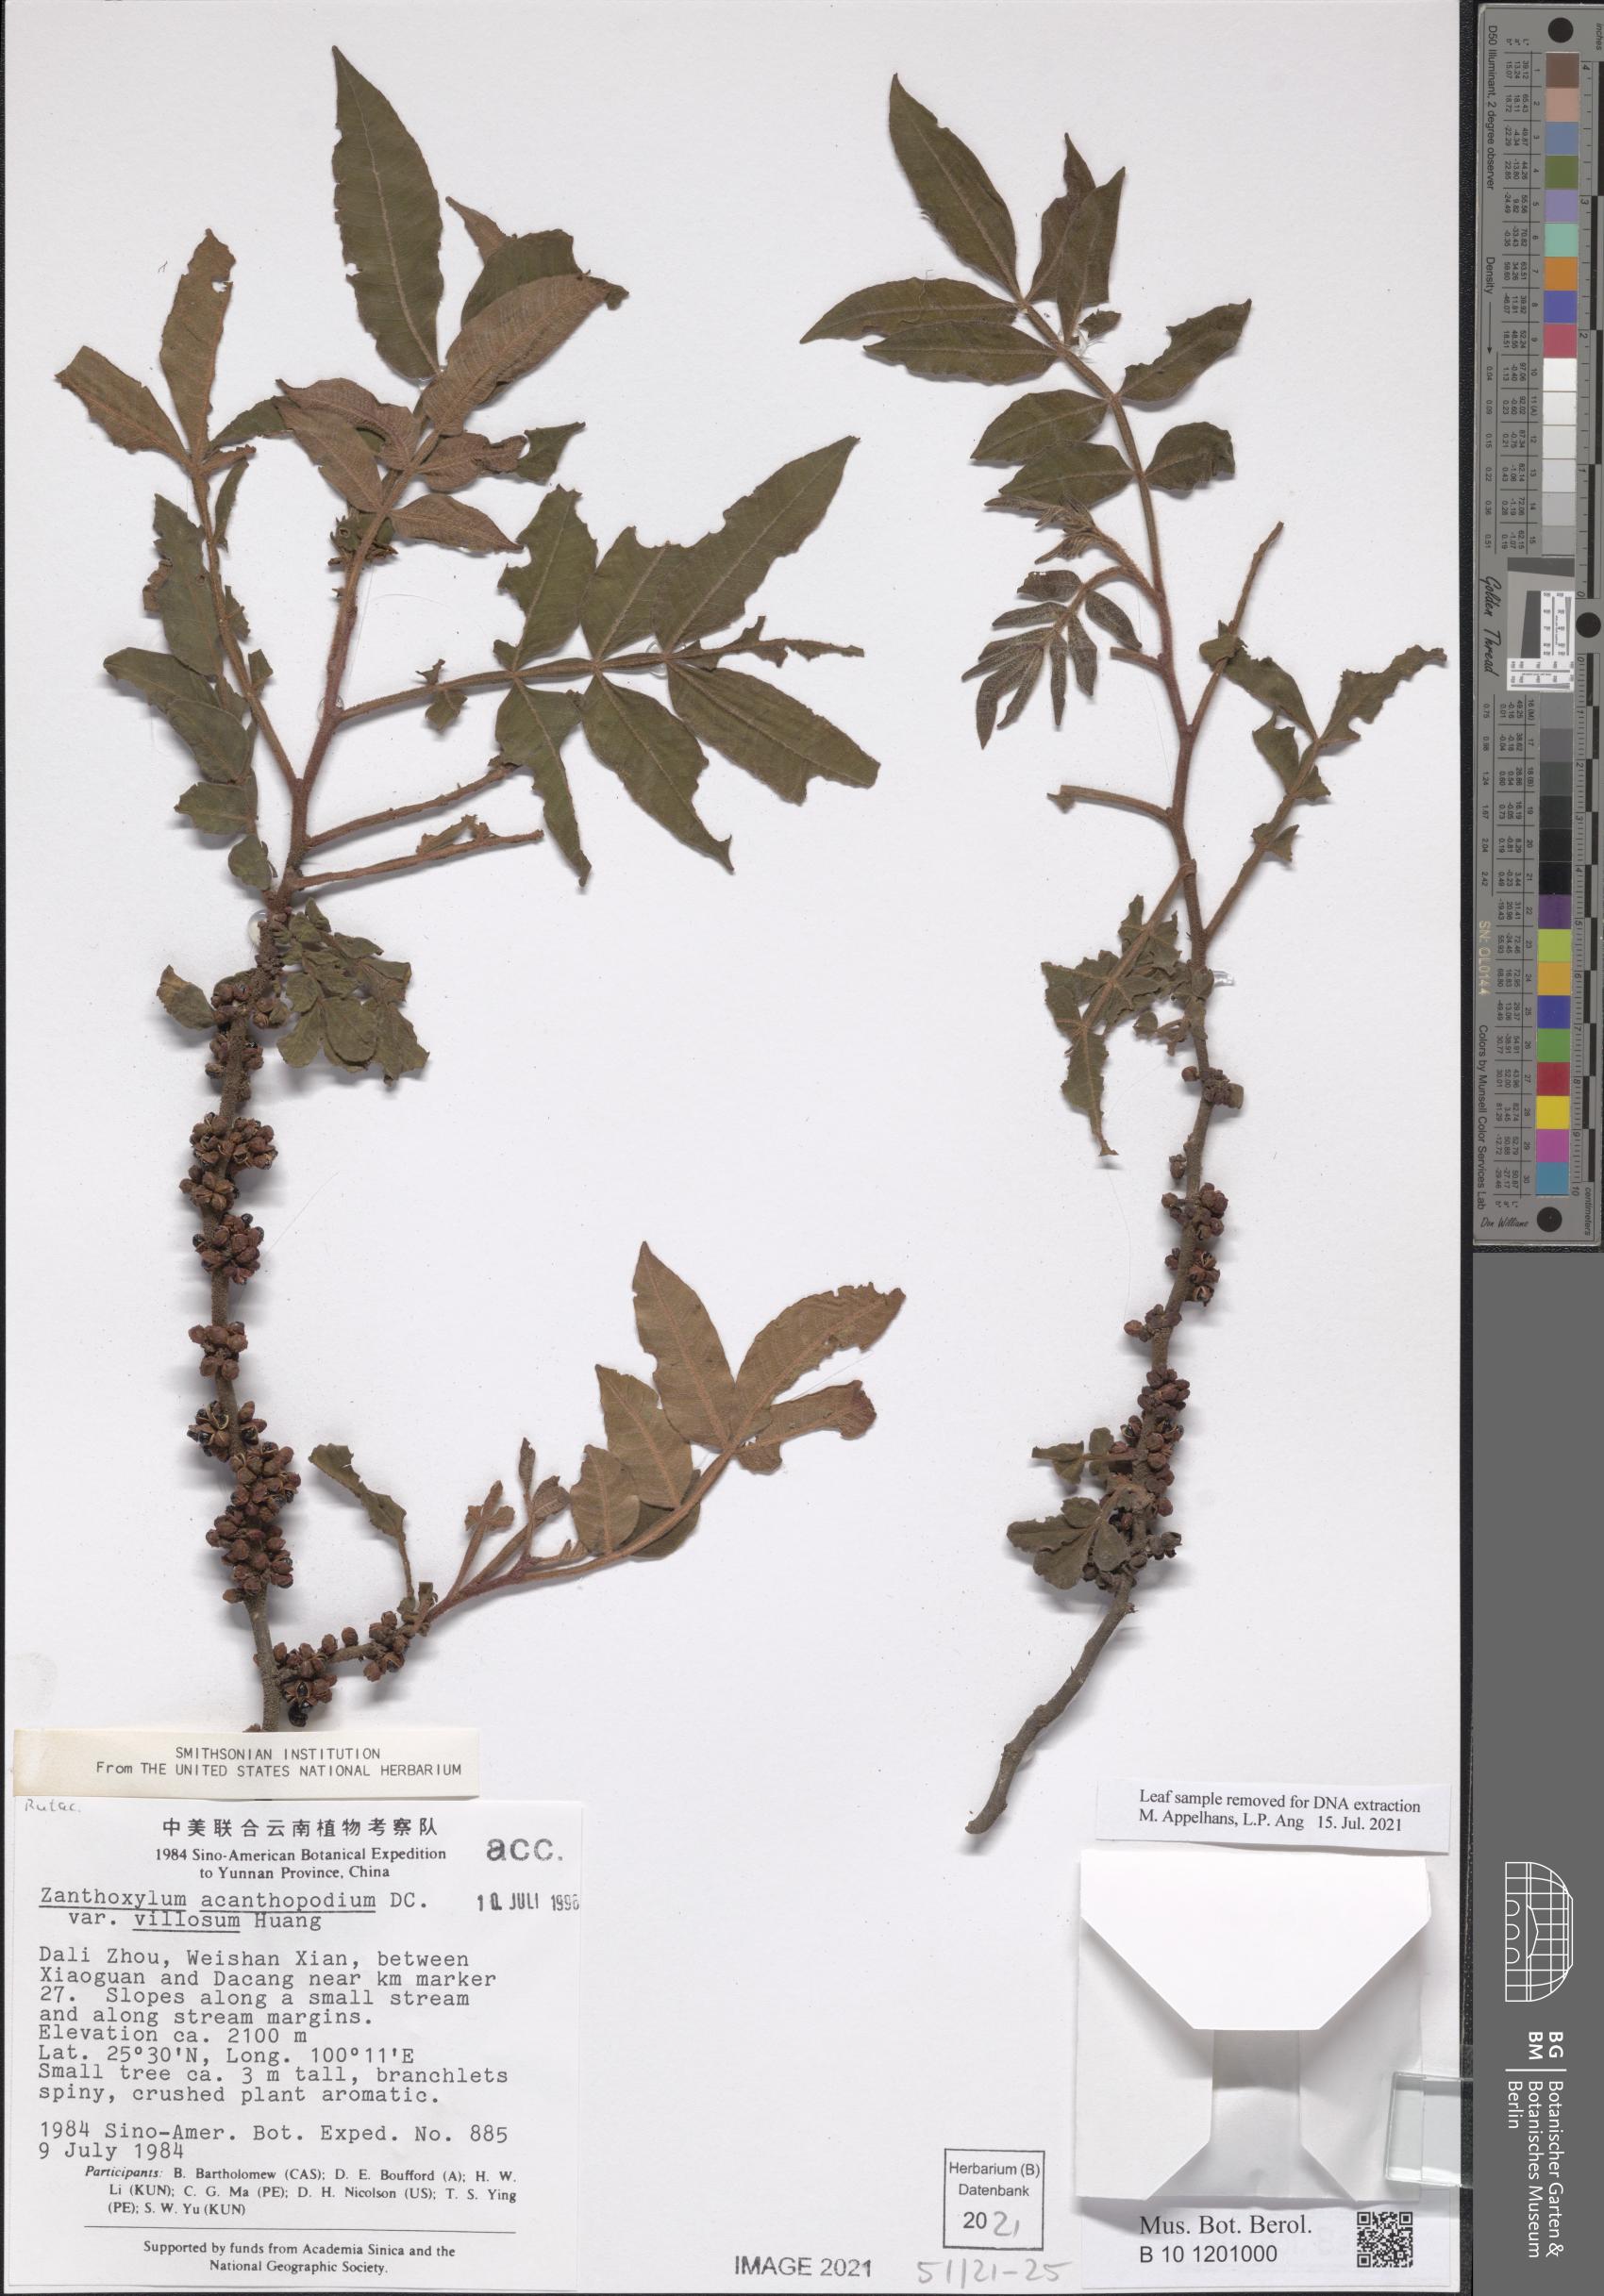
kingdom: Plantae
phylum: Tracheophyta
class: Magnoliopsida
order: Sapindales
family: Rutaceae
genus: Zanthoxylum
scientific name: Zanthoxylum acanthopodium
